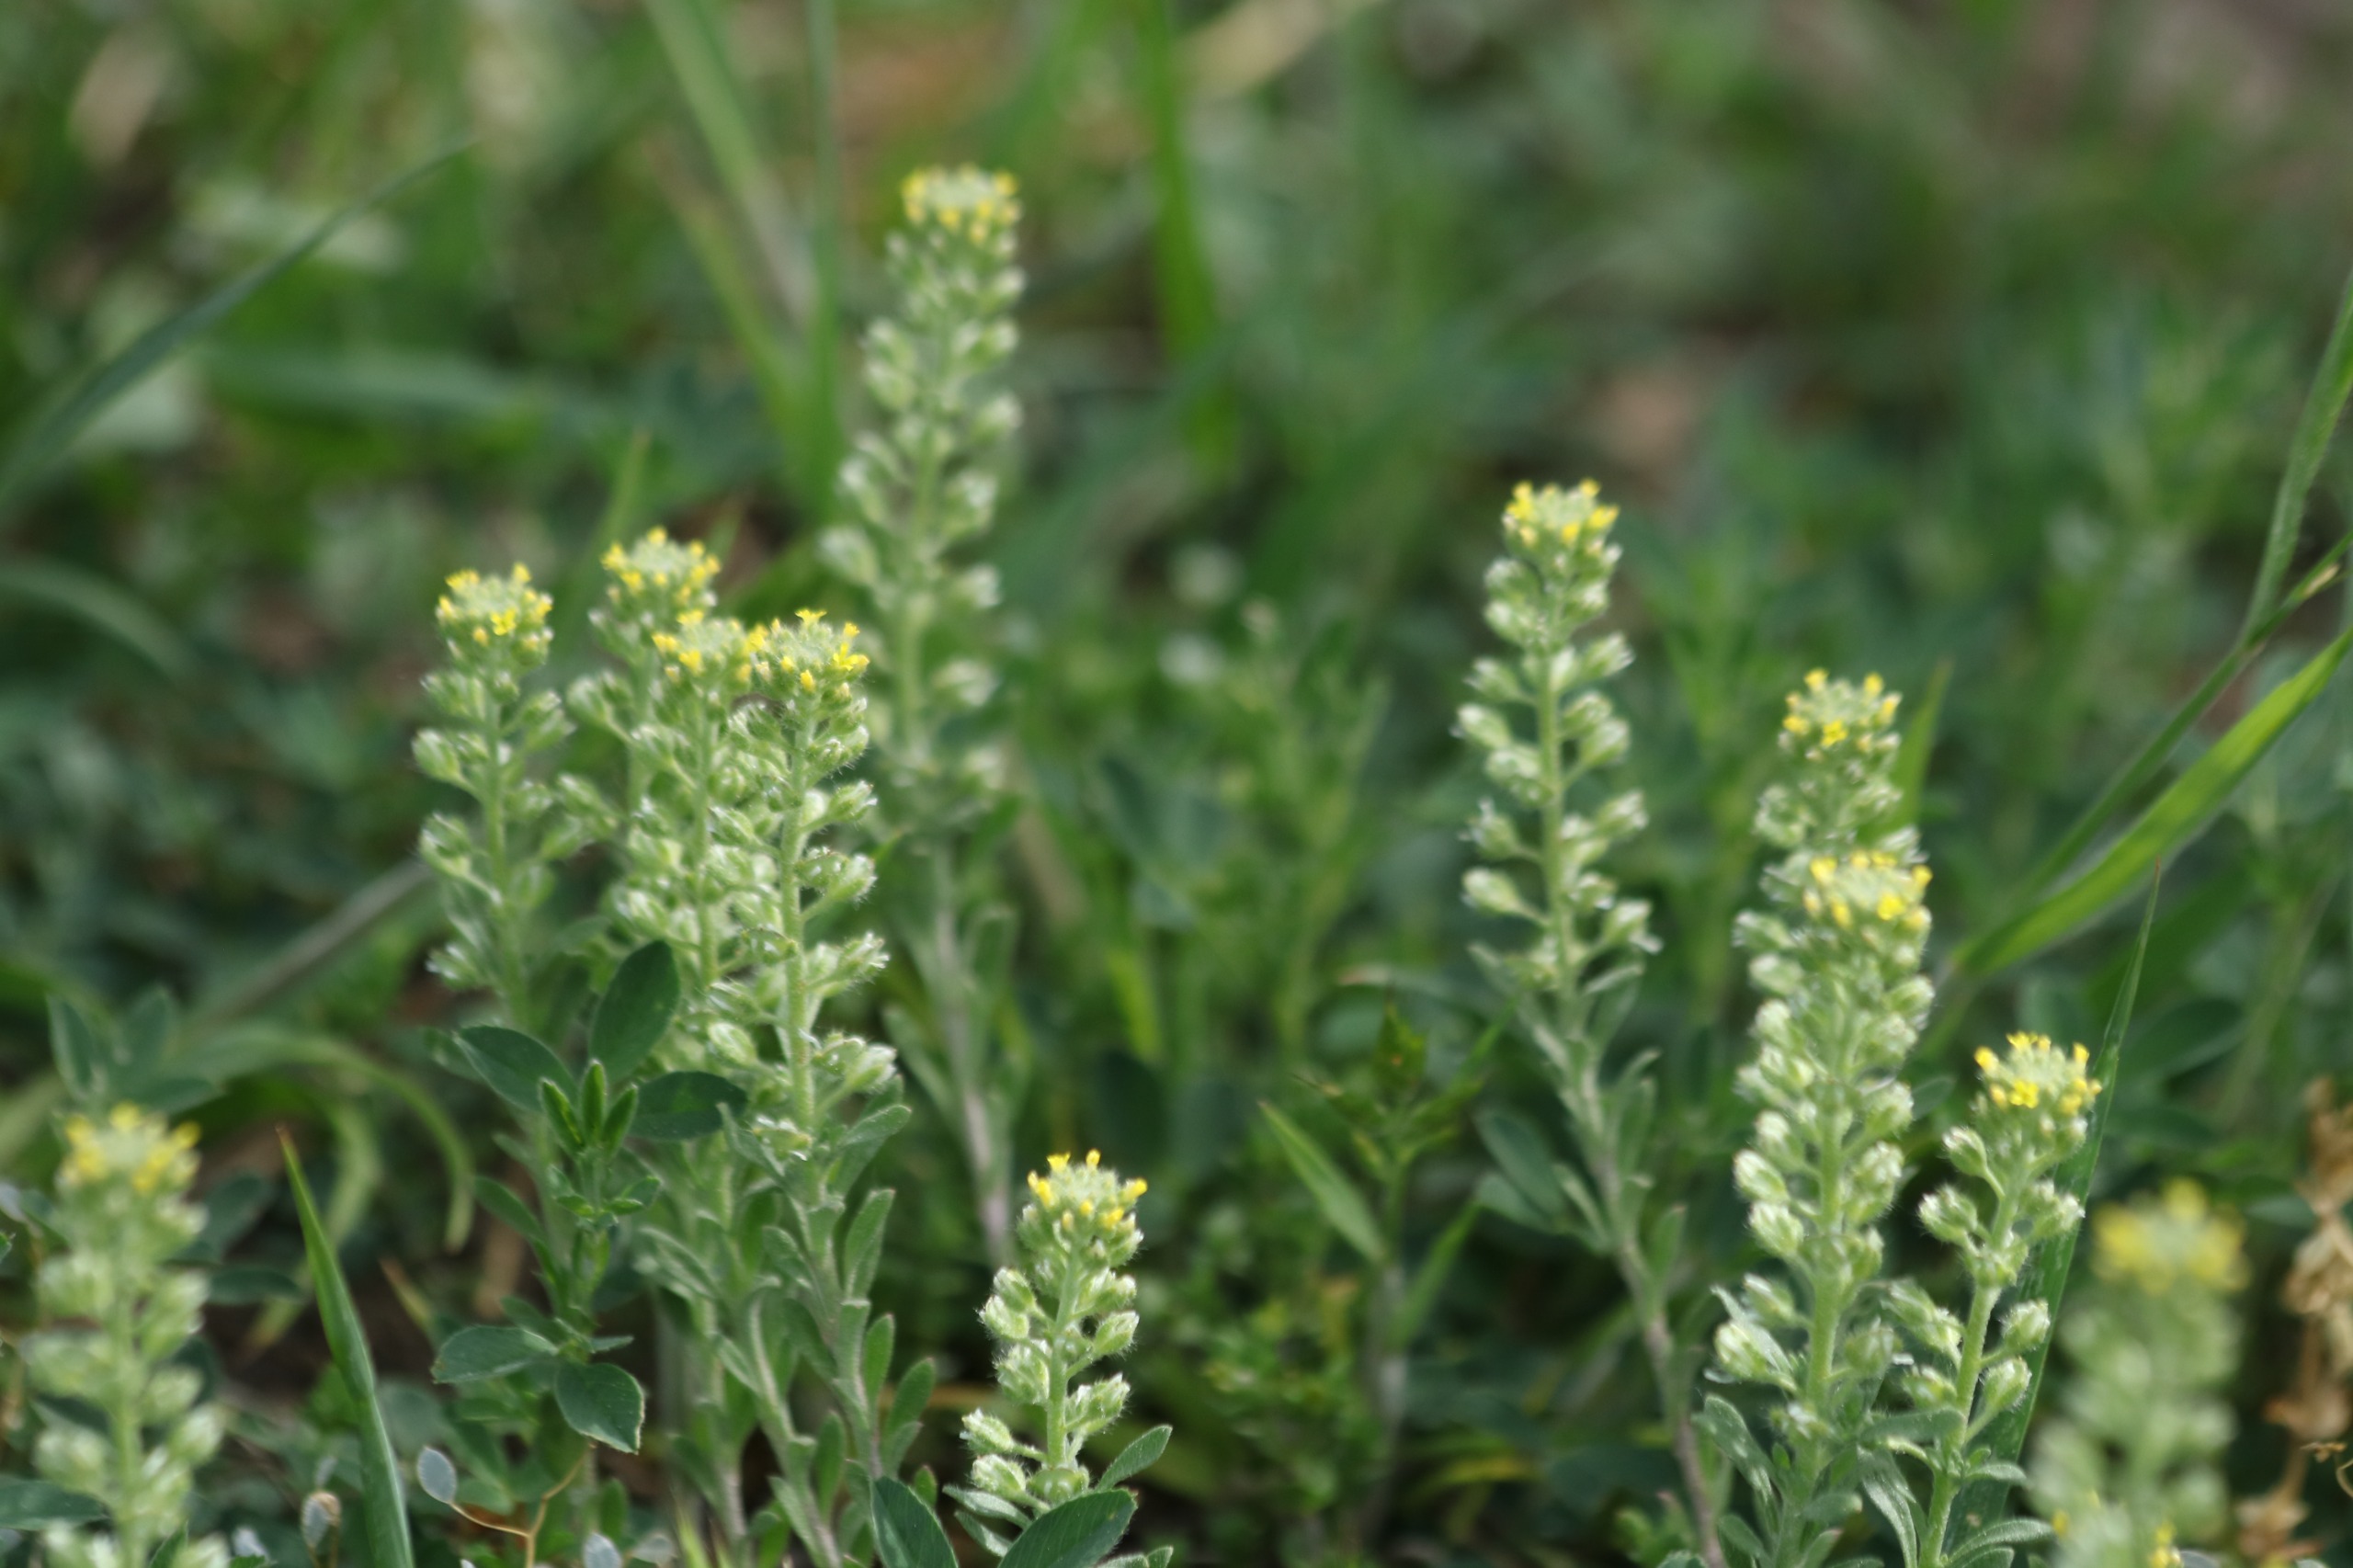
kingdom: Plantae
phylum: Tracheophyta
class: Magnoliopsida
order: Brassicales
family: Brassicaceae
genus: Alyssum
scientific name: Alyssum alyssoides
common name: Grådodder
